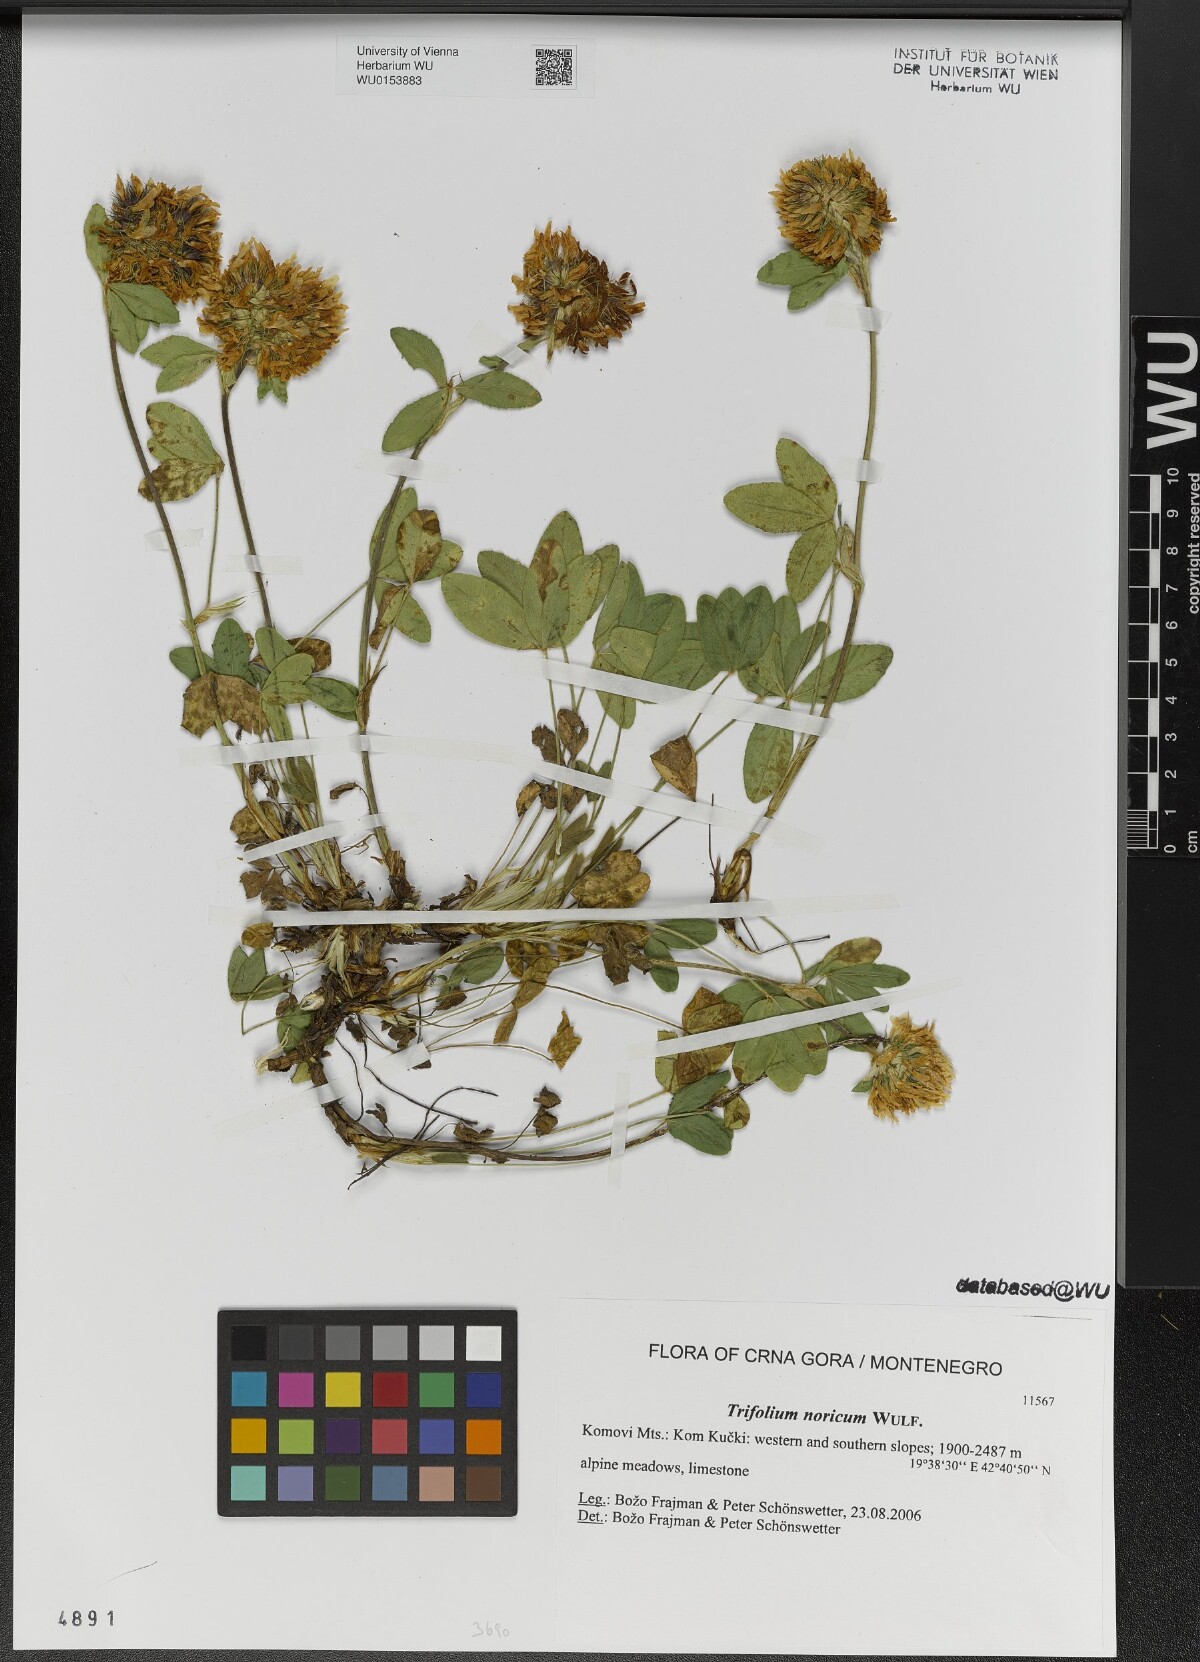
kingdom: Plantae
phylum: Tracheophyta
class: Magnoliopsida
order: Fabales
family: Fabaceae
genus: Trifolium
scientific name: Trifolium noricum
